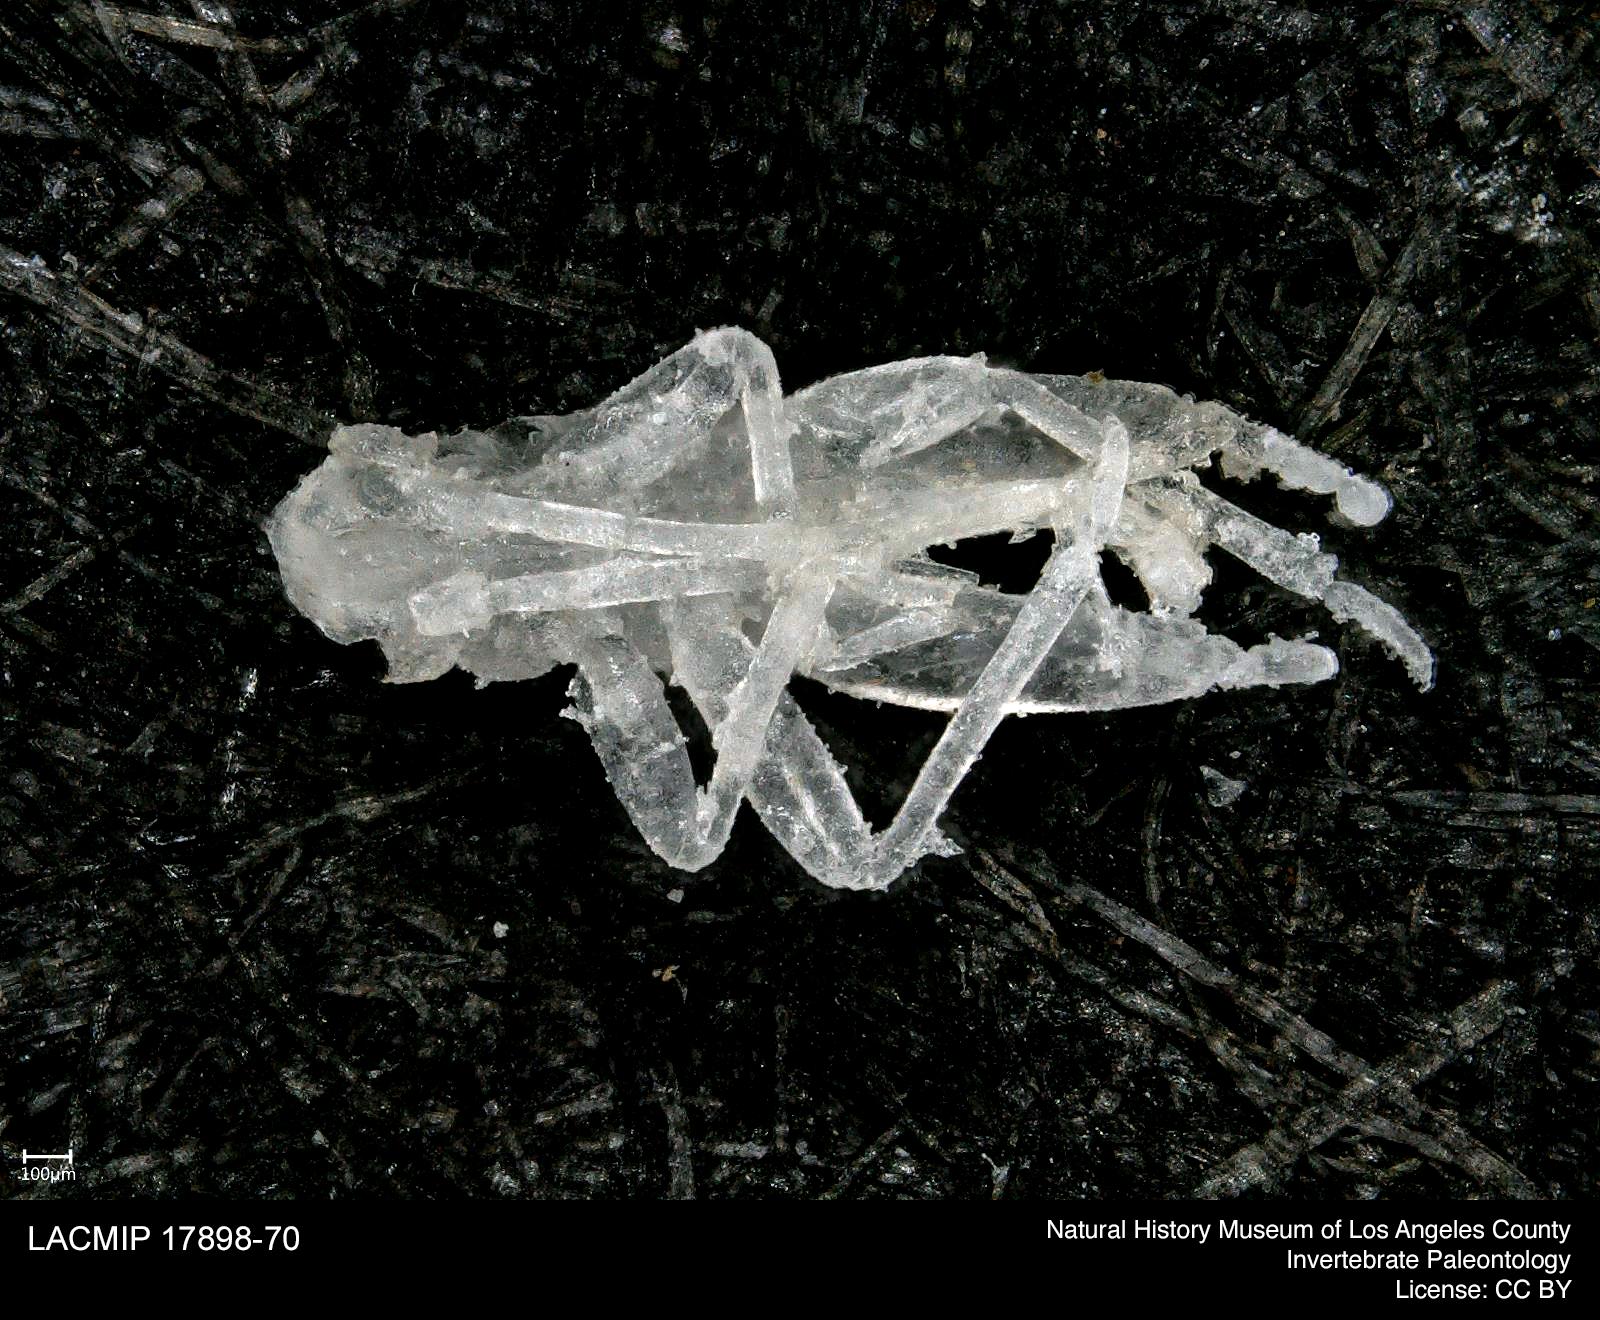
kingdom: Animalia
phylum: Arthropoda
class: Insecta
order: Orthoptera
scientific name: Orthoptera
